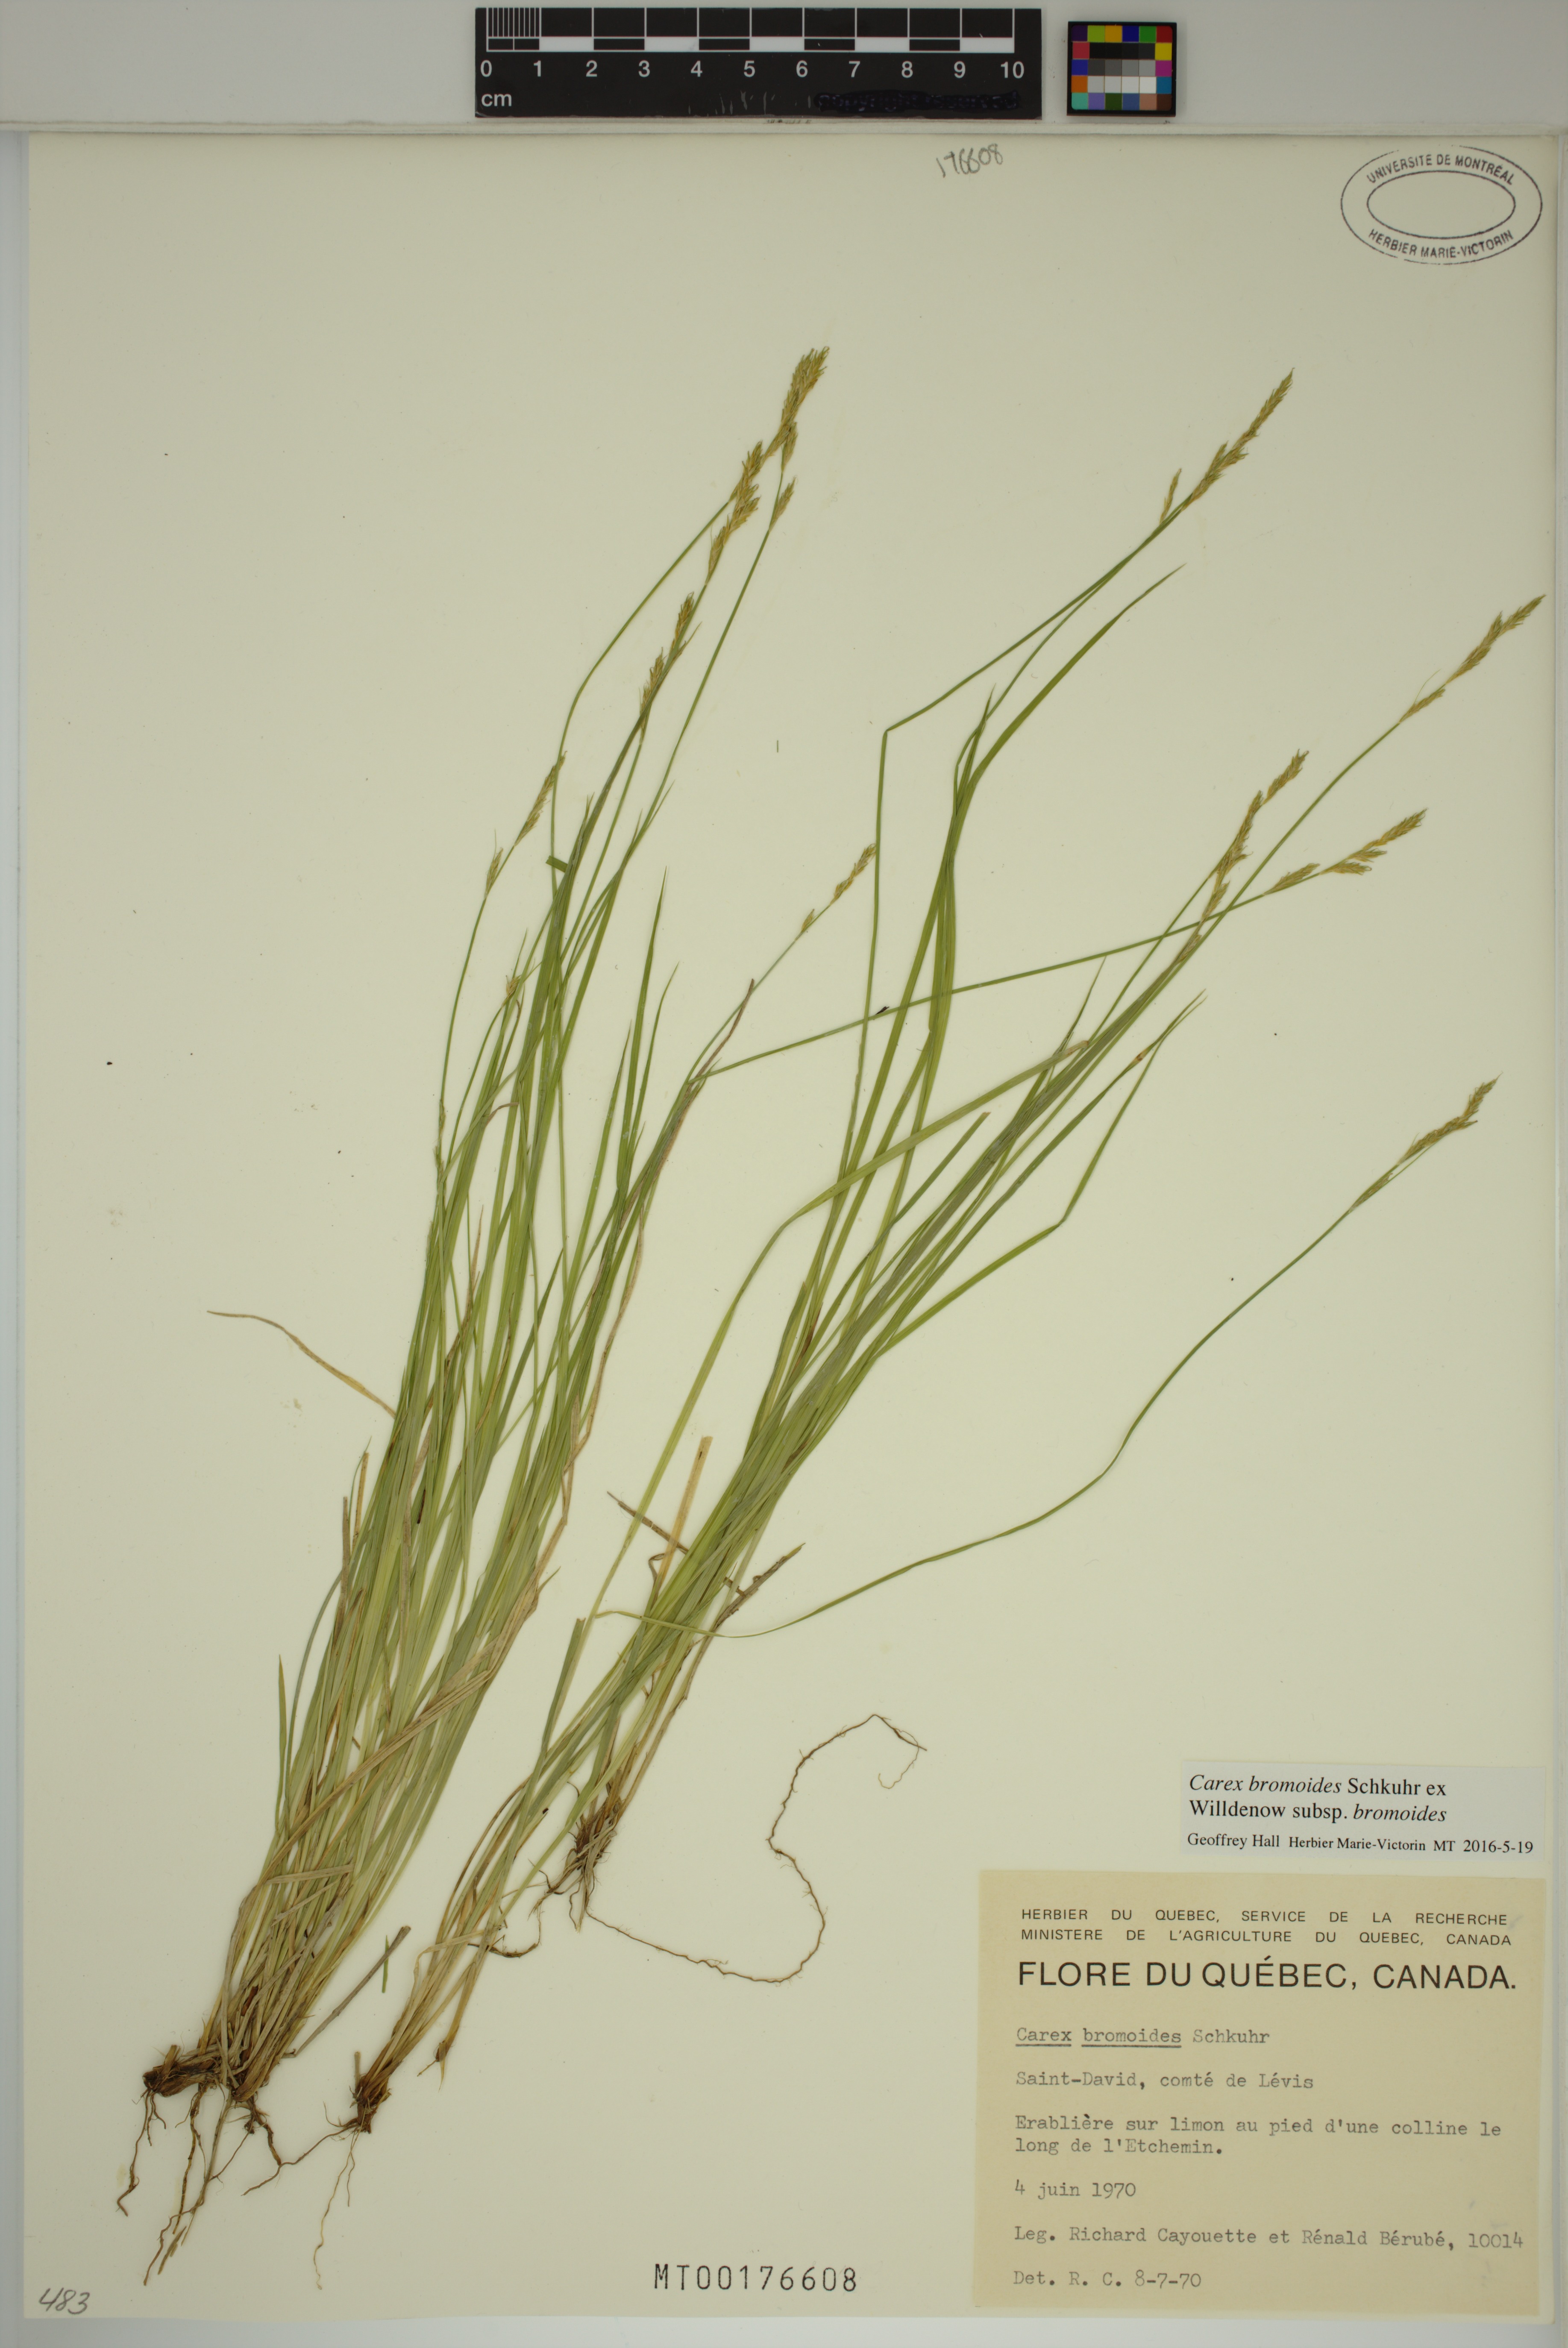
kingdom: Plantae
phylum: Tracheophyta
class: Liliopsida
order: Poales
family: Cyperaceae
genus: Carex
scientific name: Carex bromoides
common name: Brome hummock sedge
